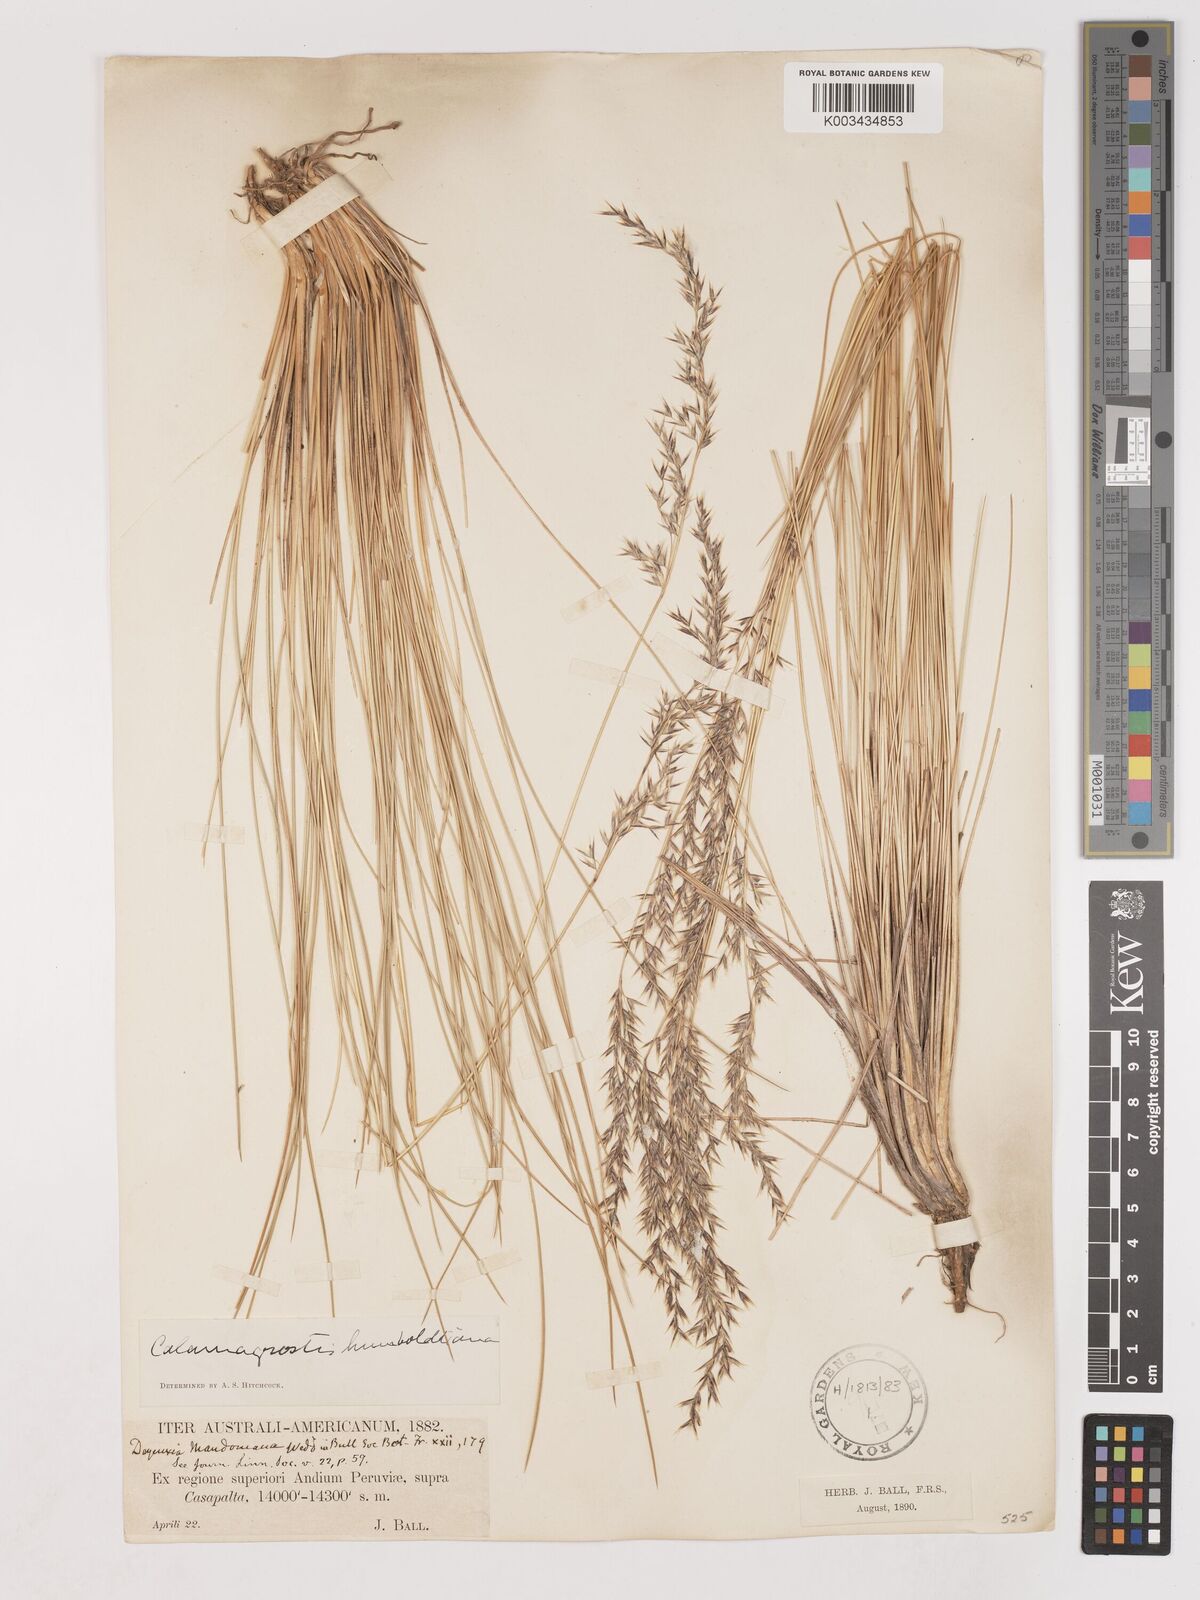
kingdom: Plantae
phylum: Tracheophyta
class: Liliopsida
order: Poales
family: Poaceae
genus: Cinnagrostis
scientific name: Cinnagrostis recta
